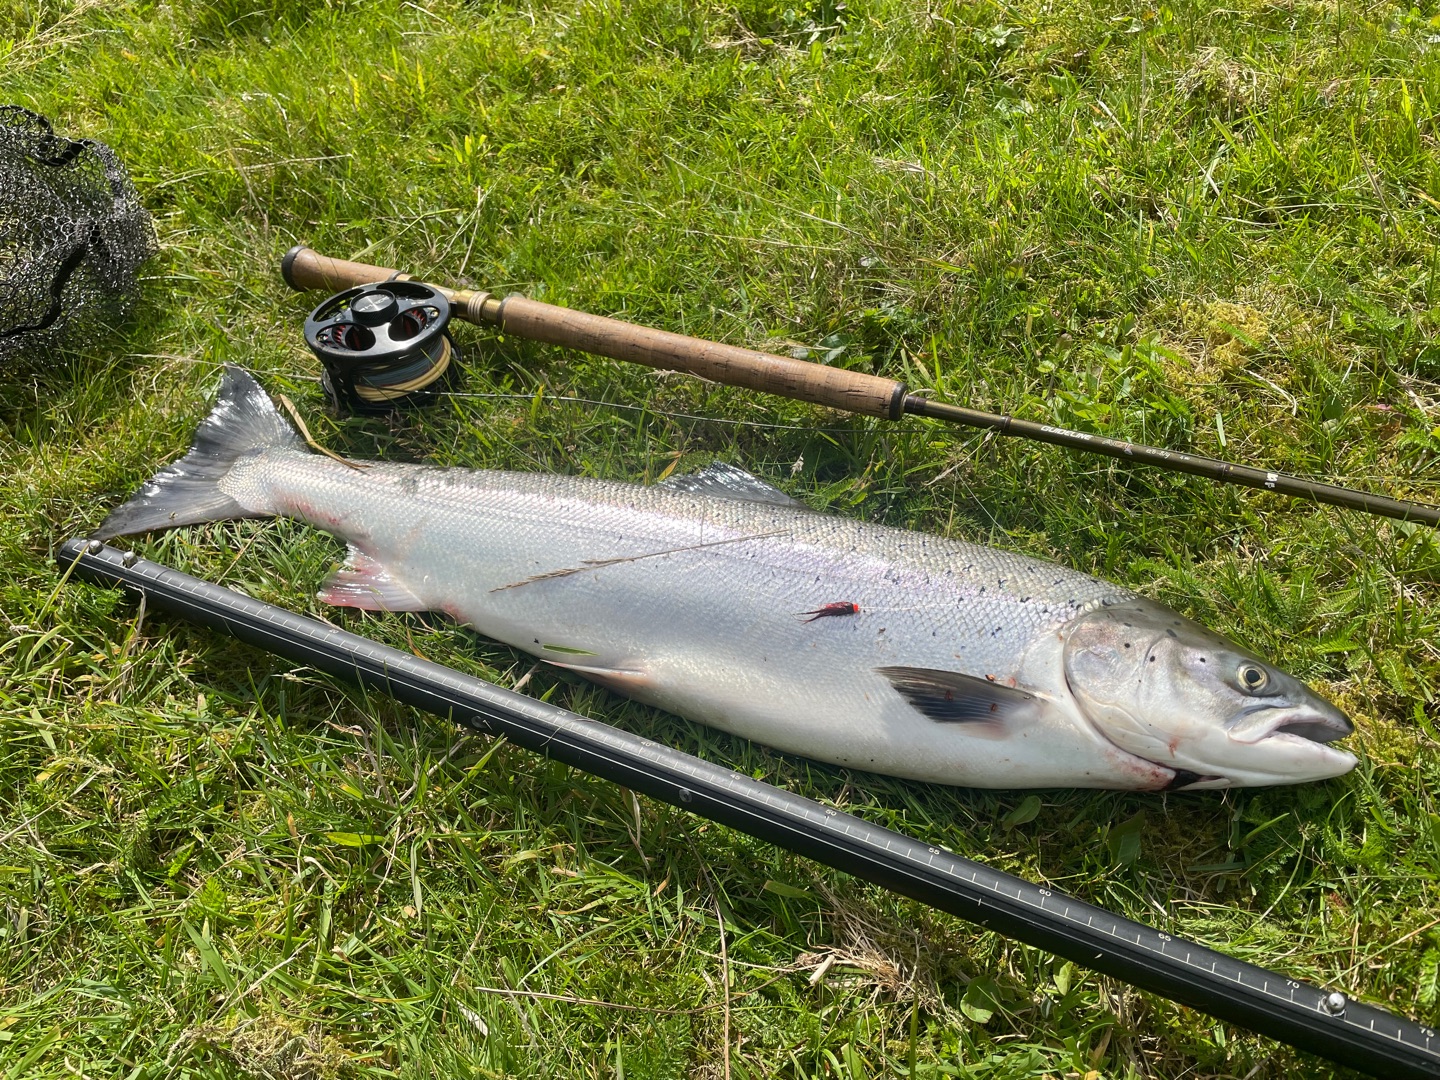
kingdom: Animalia
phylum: Chordata
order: Salmoniformes
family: Salmonidae
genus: Salmo
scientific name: Salmo salar
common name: Laks
